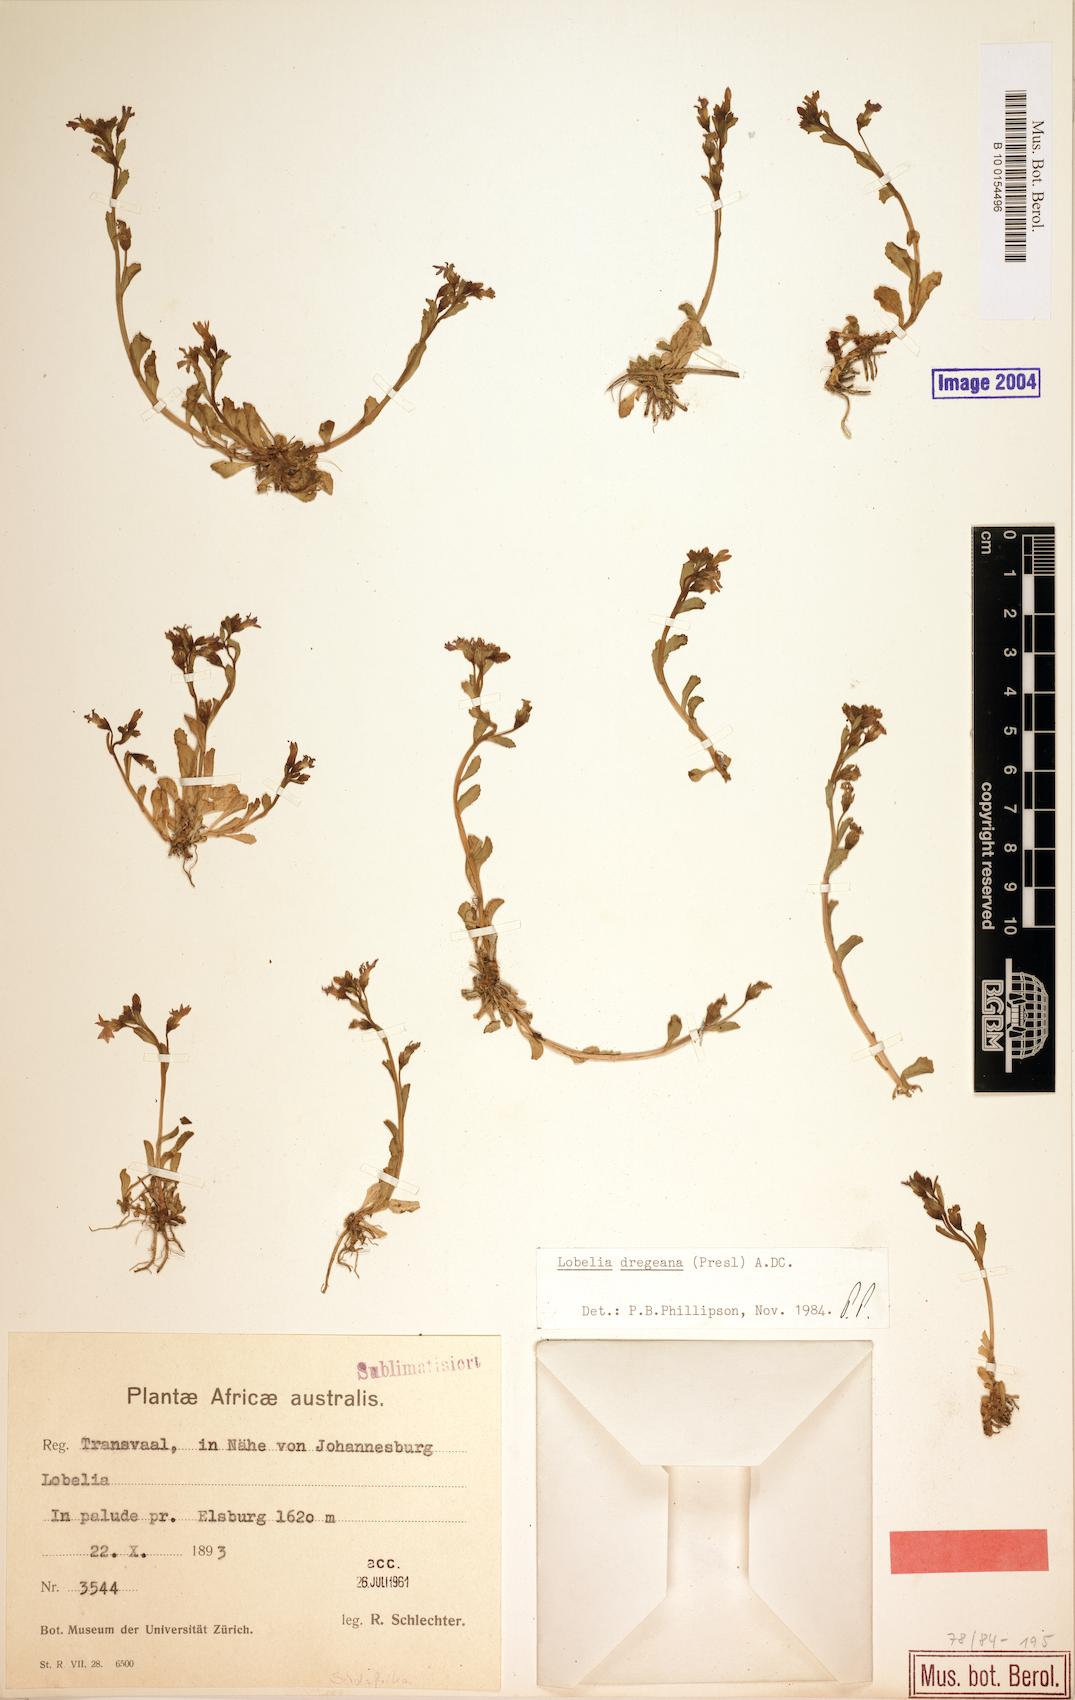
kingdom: Plantae
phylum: Tracheophyta
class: Magnoliopsida
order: Asterales
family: Campanulaceae
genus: Lobelia
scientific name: Lobelia dregeana
